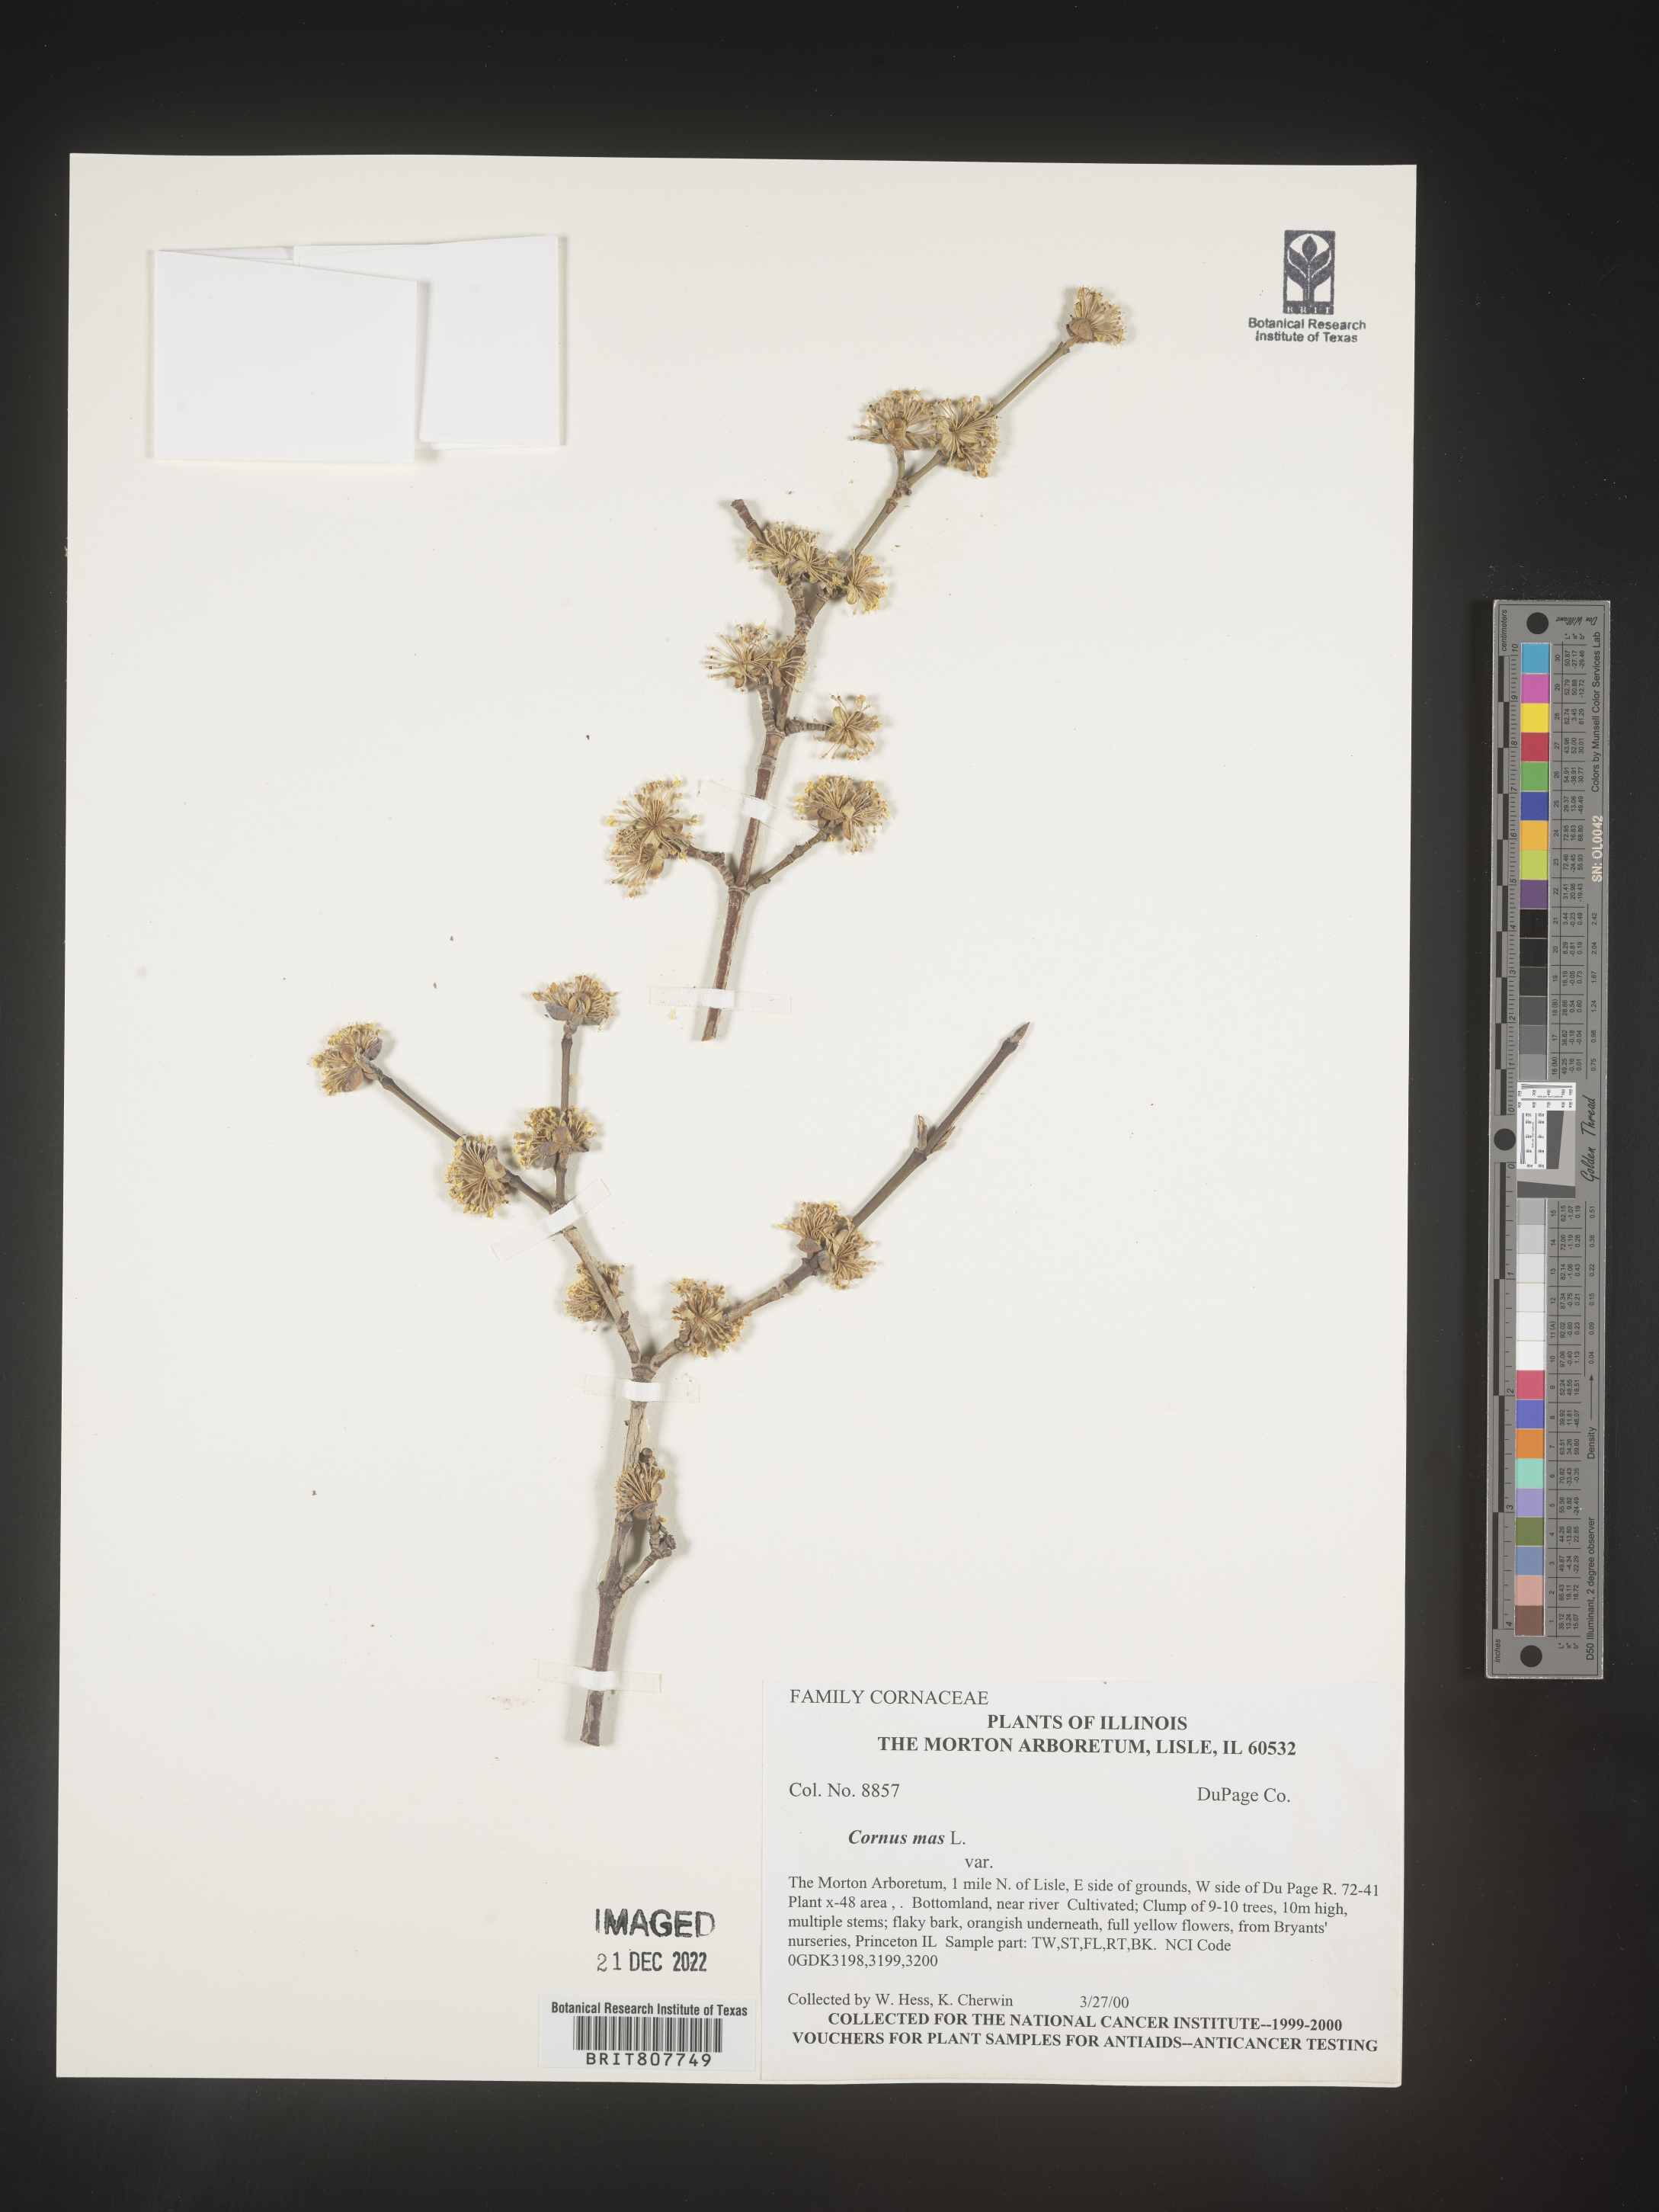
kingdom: Plantae
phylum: Tracheophyta
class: Magnoliopsida
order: Cornales
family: Cornaceae
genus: Cornus
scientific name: Cornus
